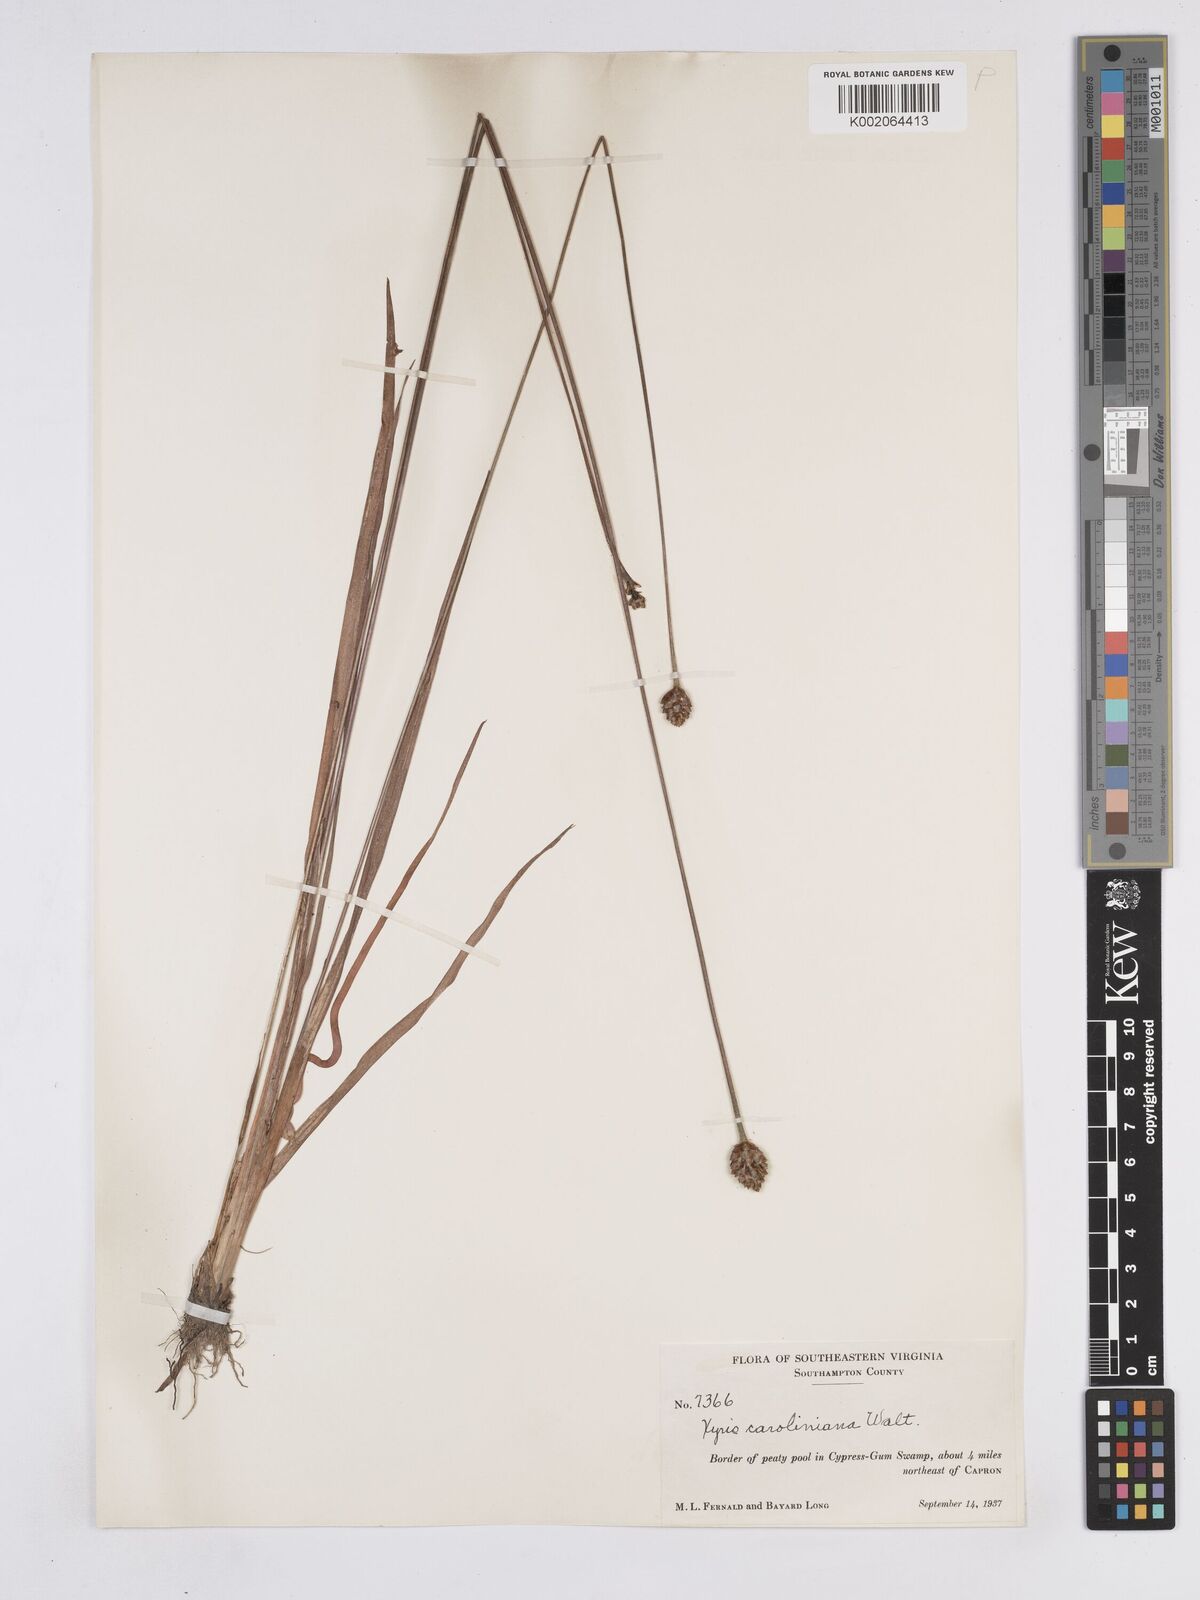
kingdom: Plantae
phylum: Tracheophyta
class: Liliopsida
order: Poales
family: Xyridaceae
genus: Xyris
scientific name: Xyris caroliniana
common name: Carolina yellow-eyed-grass
